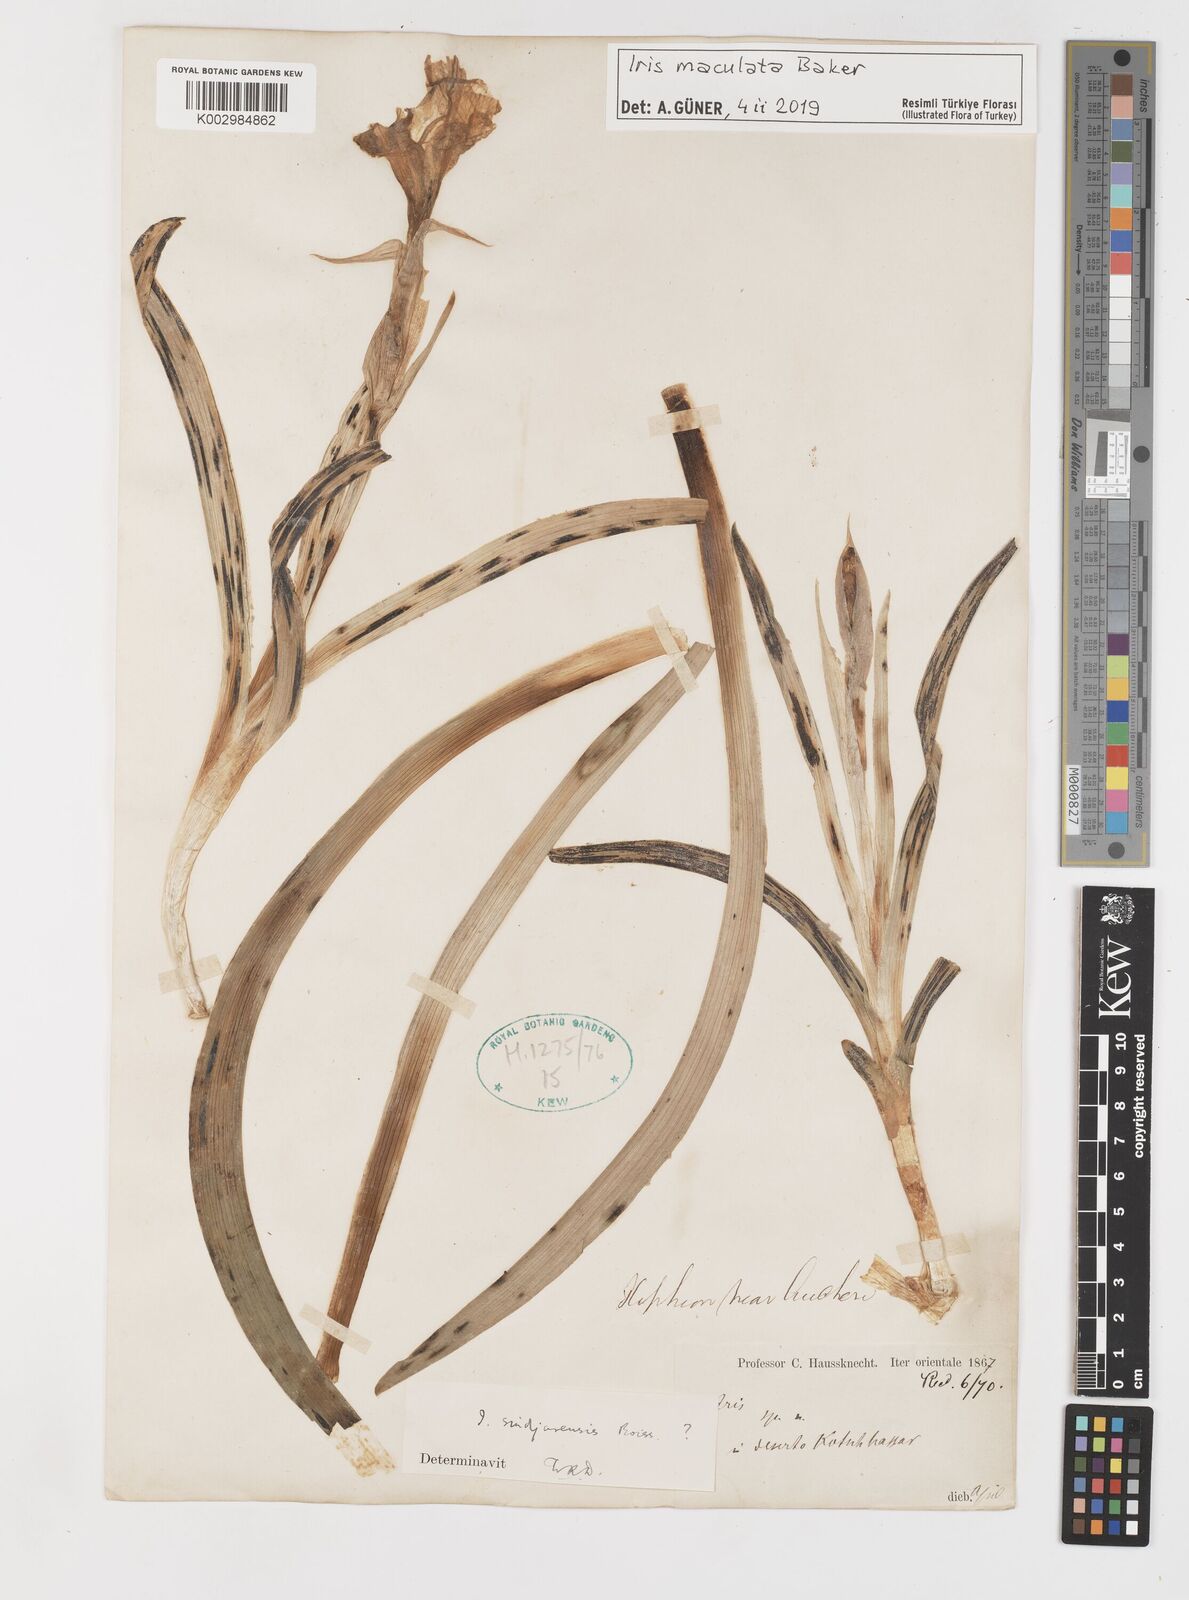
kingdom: Plantae
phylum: Tracheophyta
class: Liliopsida
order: Asparagales
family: Iridaceae
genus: Iris
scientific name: Iris maculata
